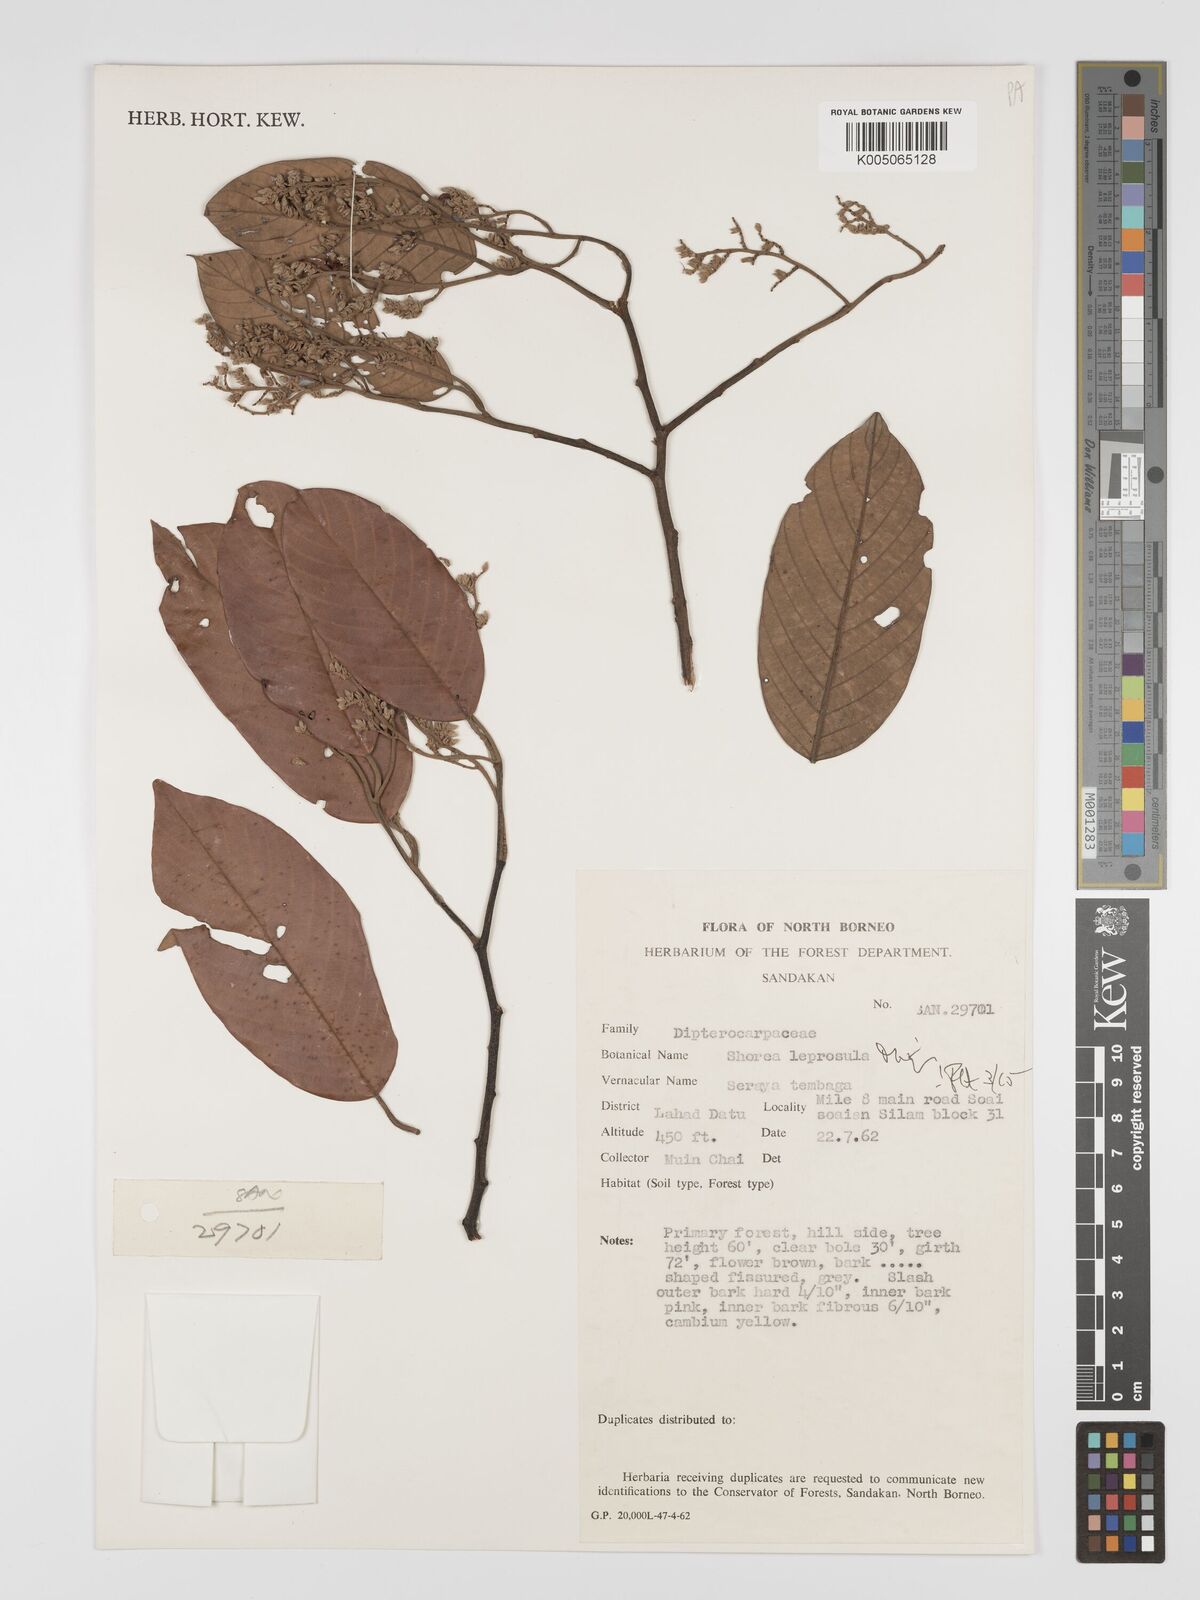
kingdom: Plantae
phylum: Tracheophyta
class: Magnoliopsida
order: Malvales
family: Dipterocarpaceae
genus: Shorea
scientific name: Shorea leprosula
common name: Light red meranti
